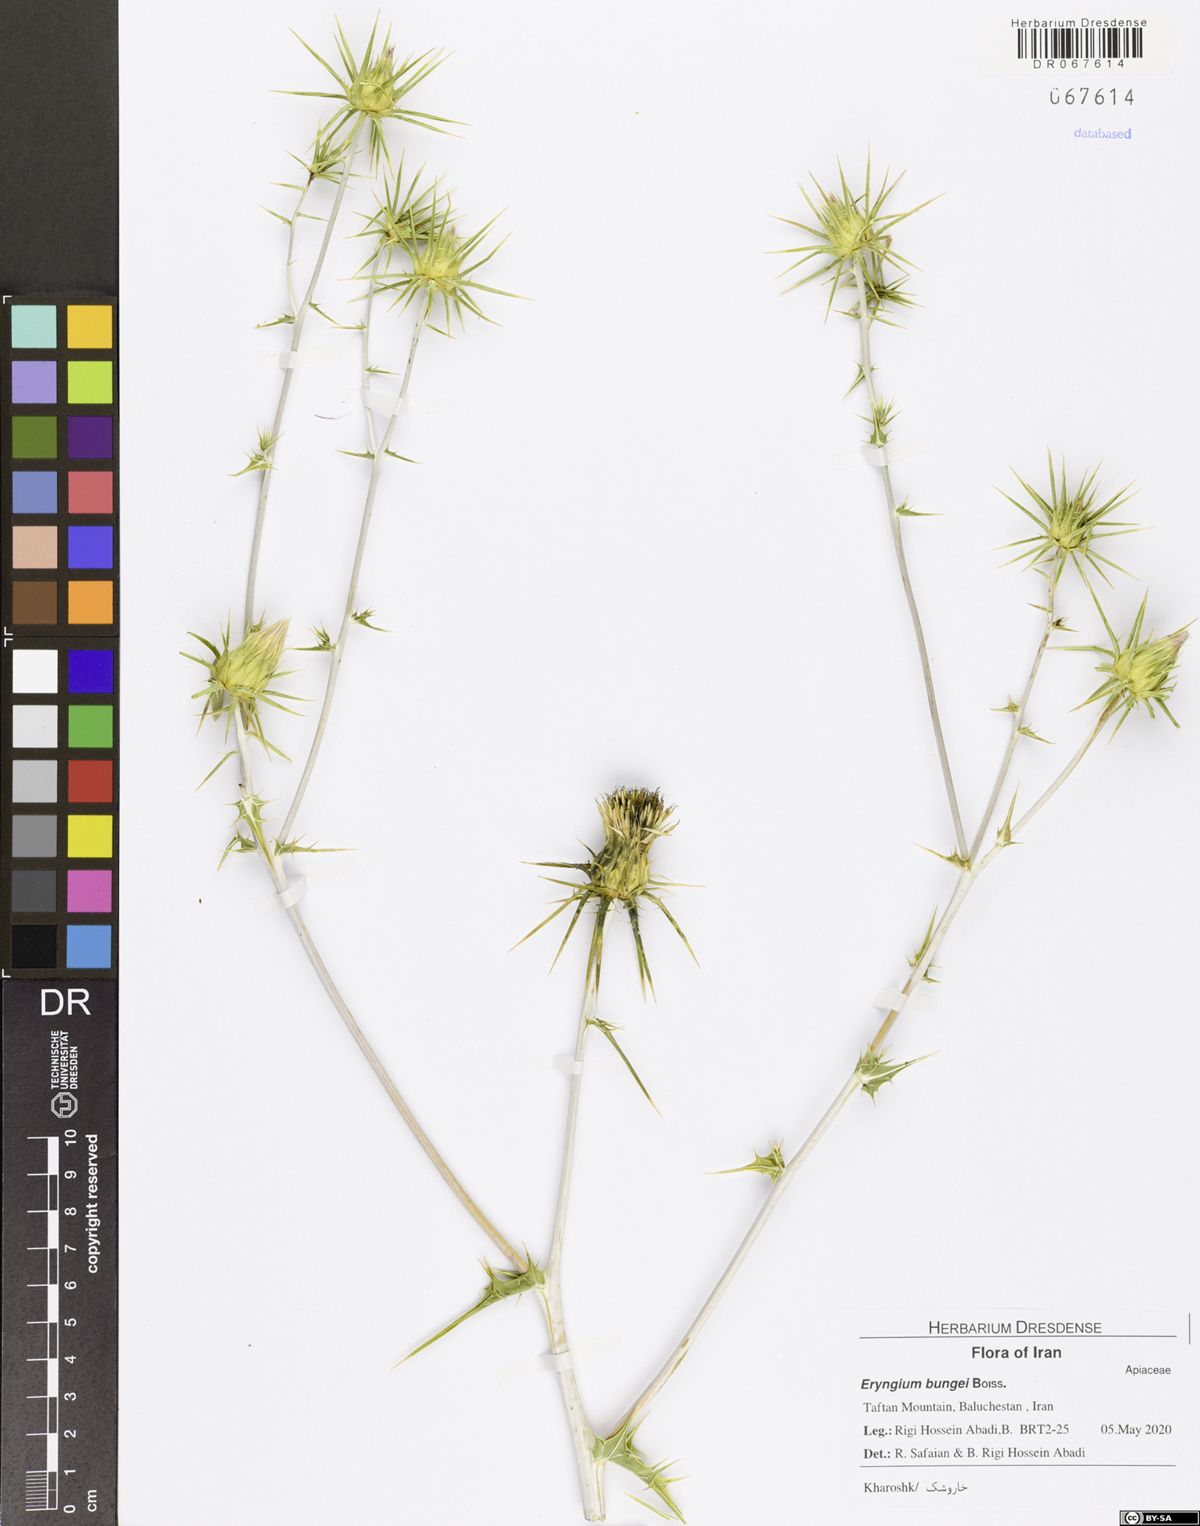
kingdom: Plantae
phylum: Tracheophyta
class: Magnoliopsida
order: Apiales
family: Apiaceae
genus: Eryngium
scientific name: Eryngium bungei
